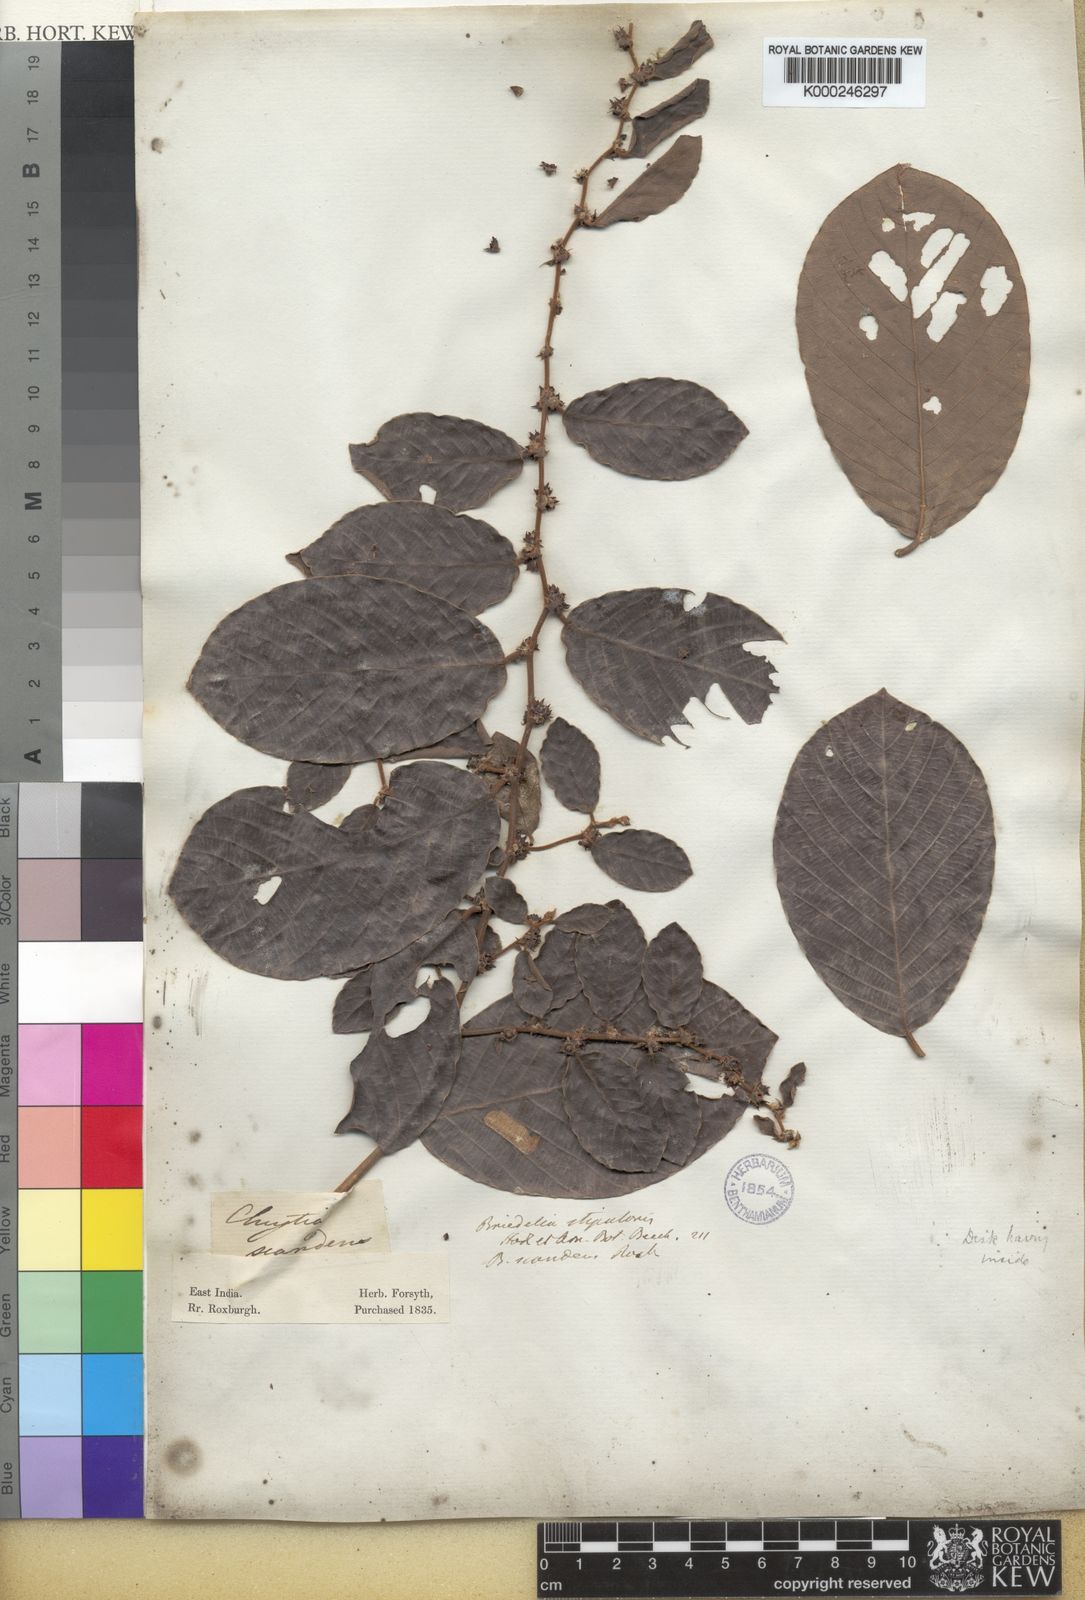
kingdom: Plantae
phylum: Tracheophyta
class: Magnoliopsida
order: Malpighiales
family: Phyllanthaceae
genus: Bridelia
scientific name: Bridelia stipularis
